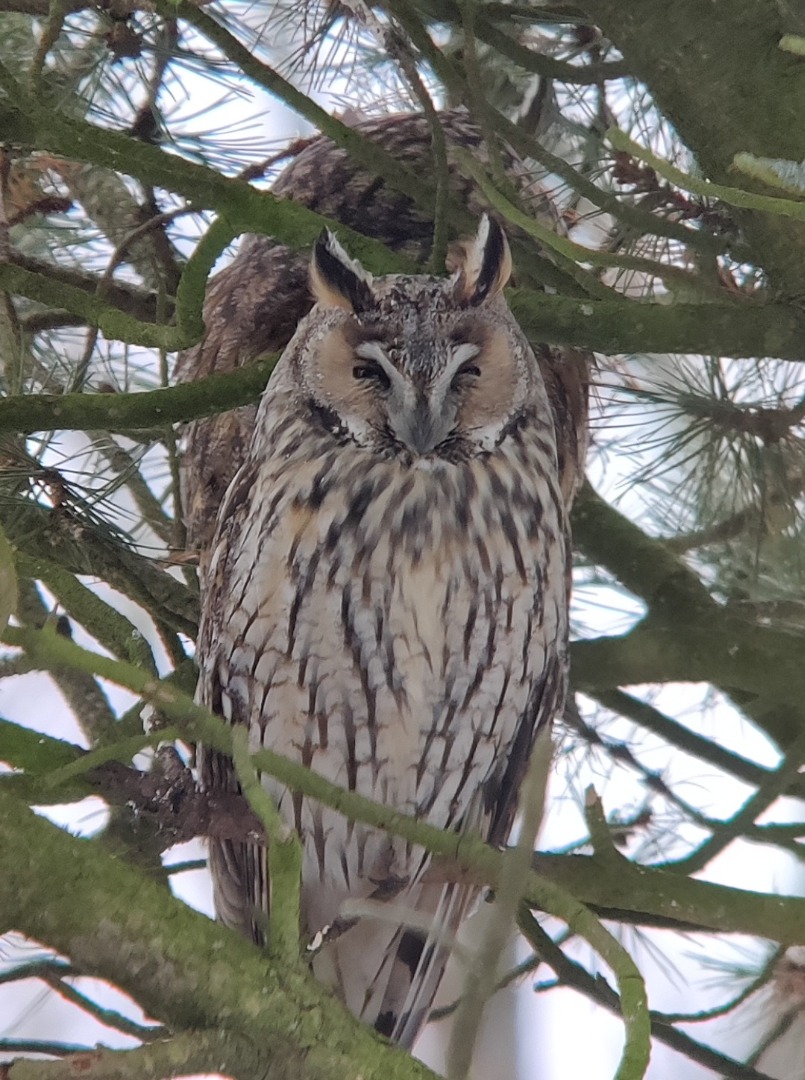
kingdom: Animalia
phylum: Chordata
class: Aves
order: Strigiformes
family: Strigidae
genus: Asio
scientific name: Asio otus
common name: Skovhornugle
